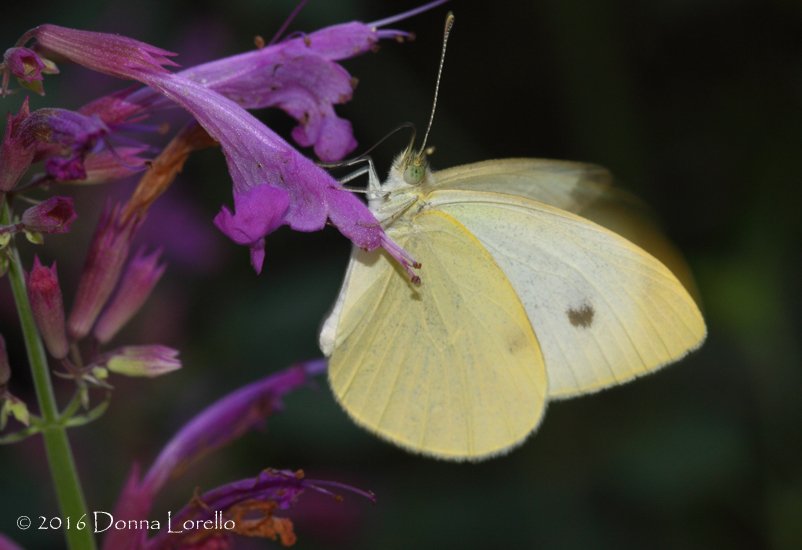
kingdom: Animalia
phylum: Arthropoda
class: Insecta
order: Lepidoptera
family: Pieridae
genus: Pieris
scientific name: Pieris rapae
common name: Cabbage White
